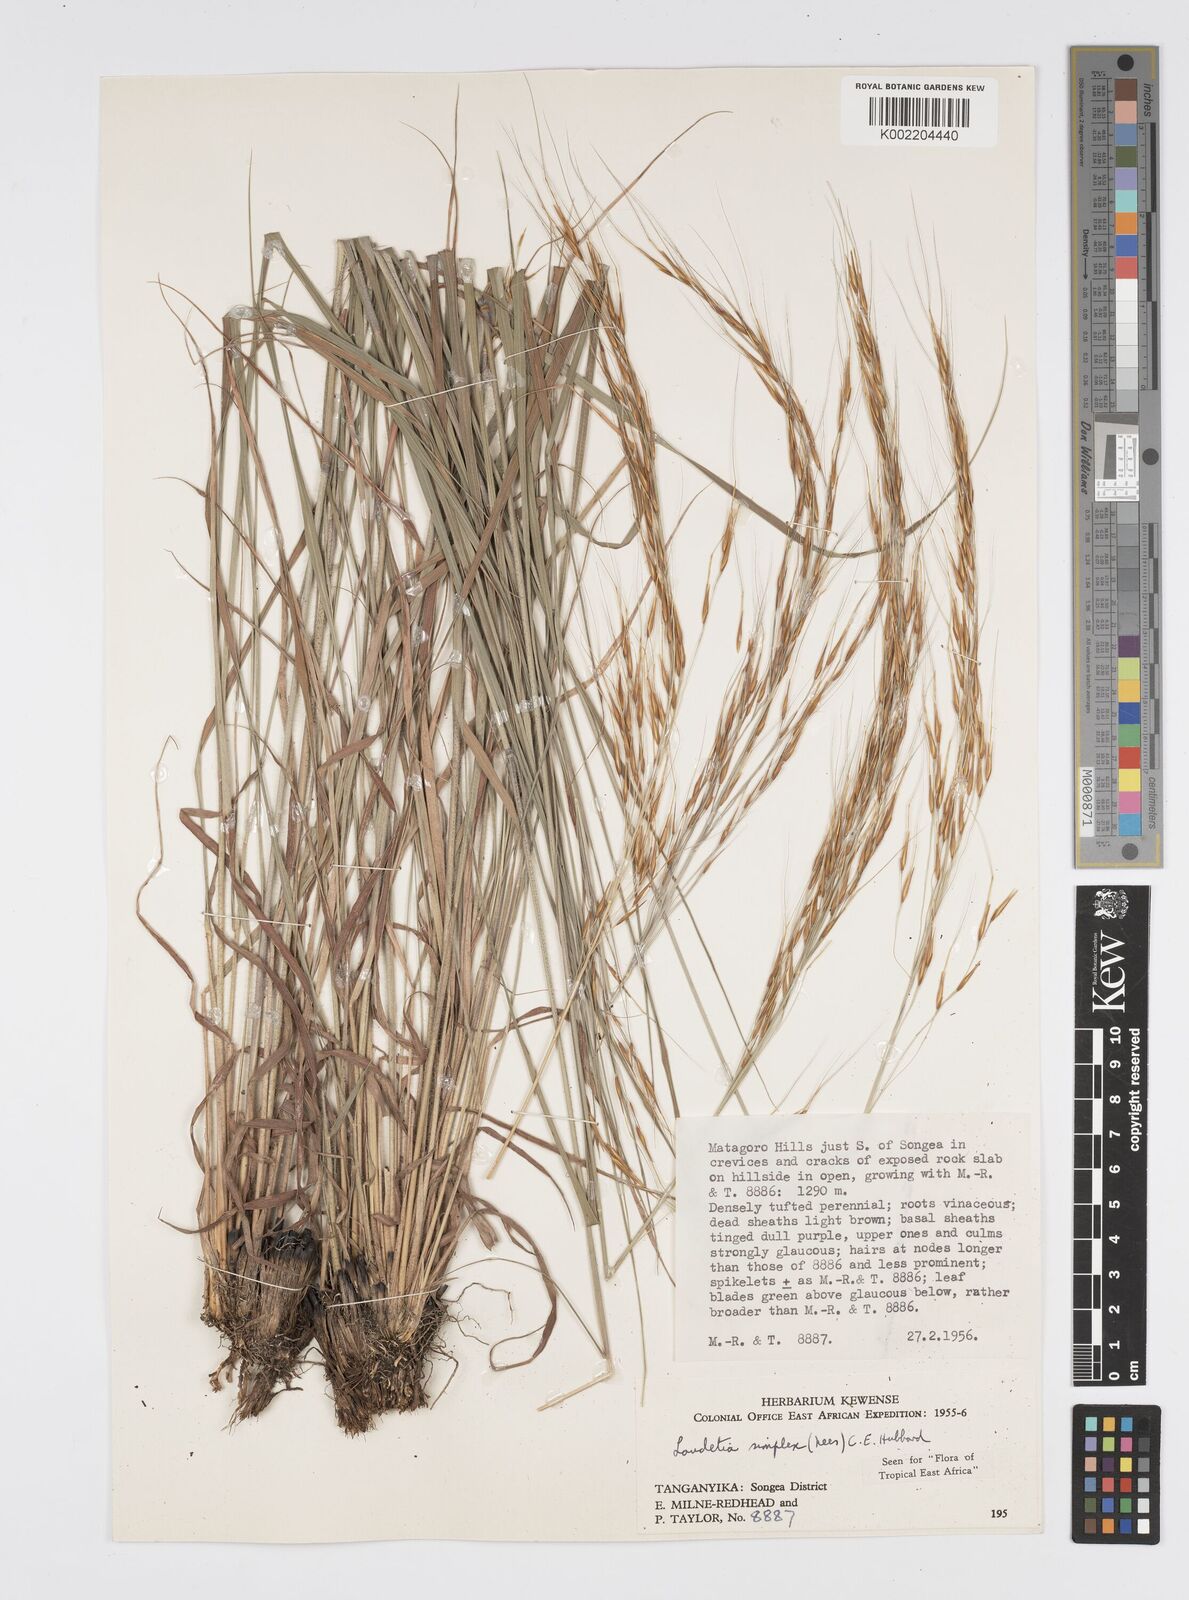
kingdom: Plantae
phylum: Tracheophyta
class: Liliopsida
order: Poales
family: Poaceae
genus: Loudetia
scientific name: Loudetia simplex
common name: Common russet grass
